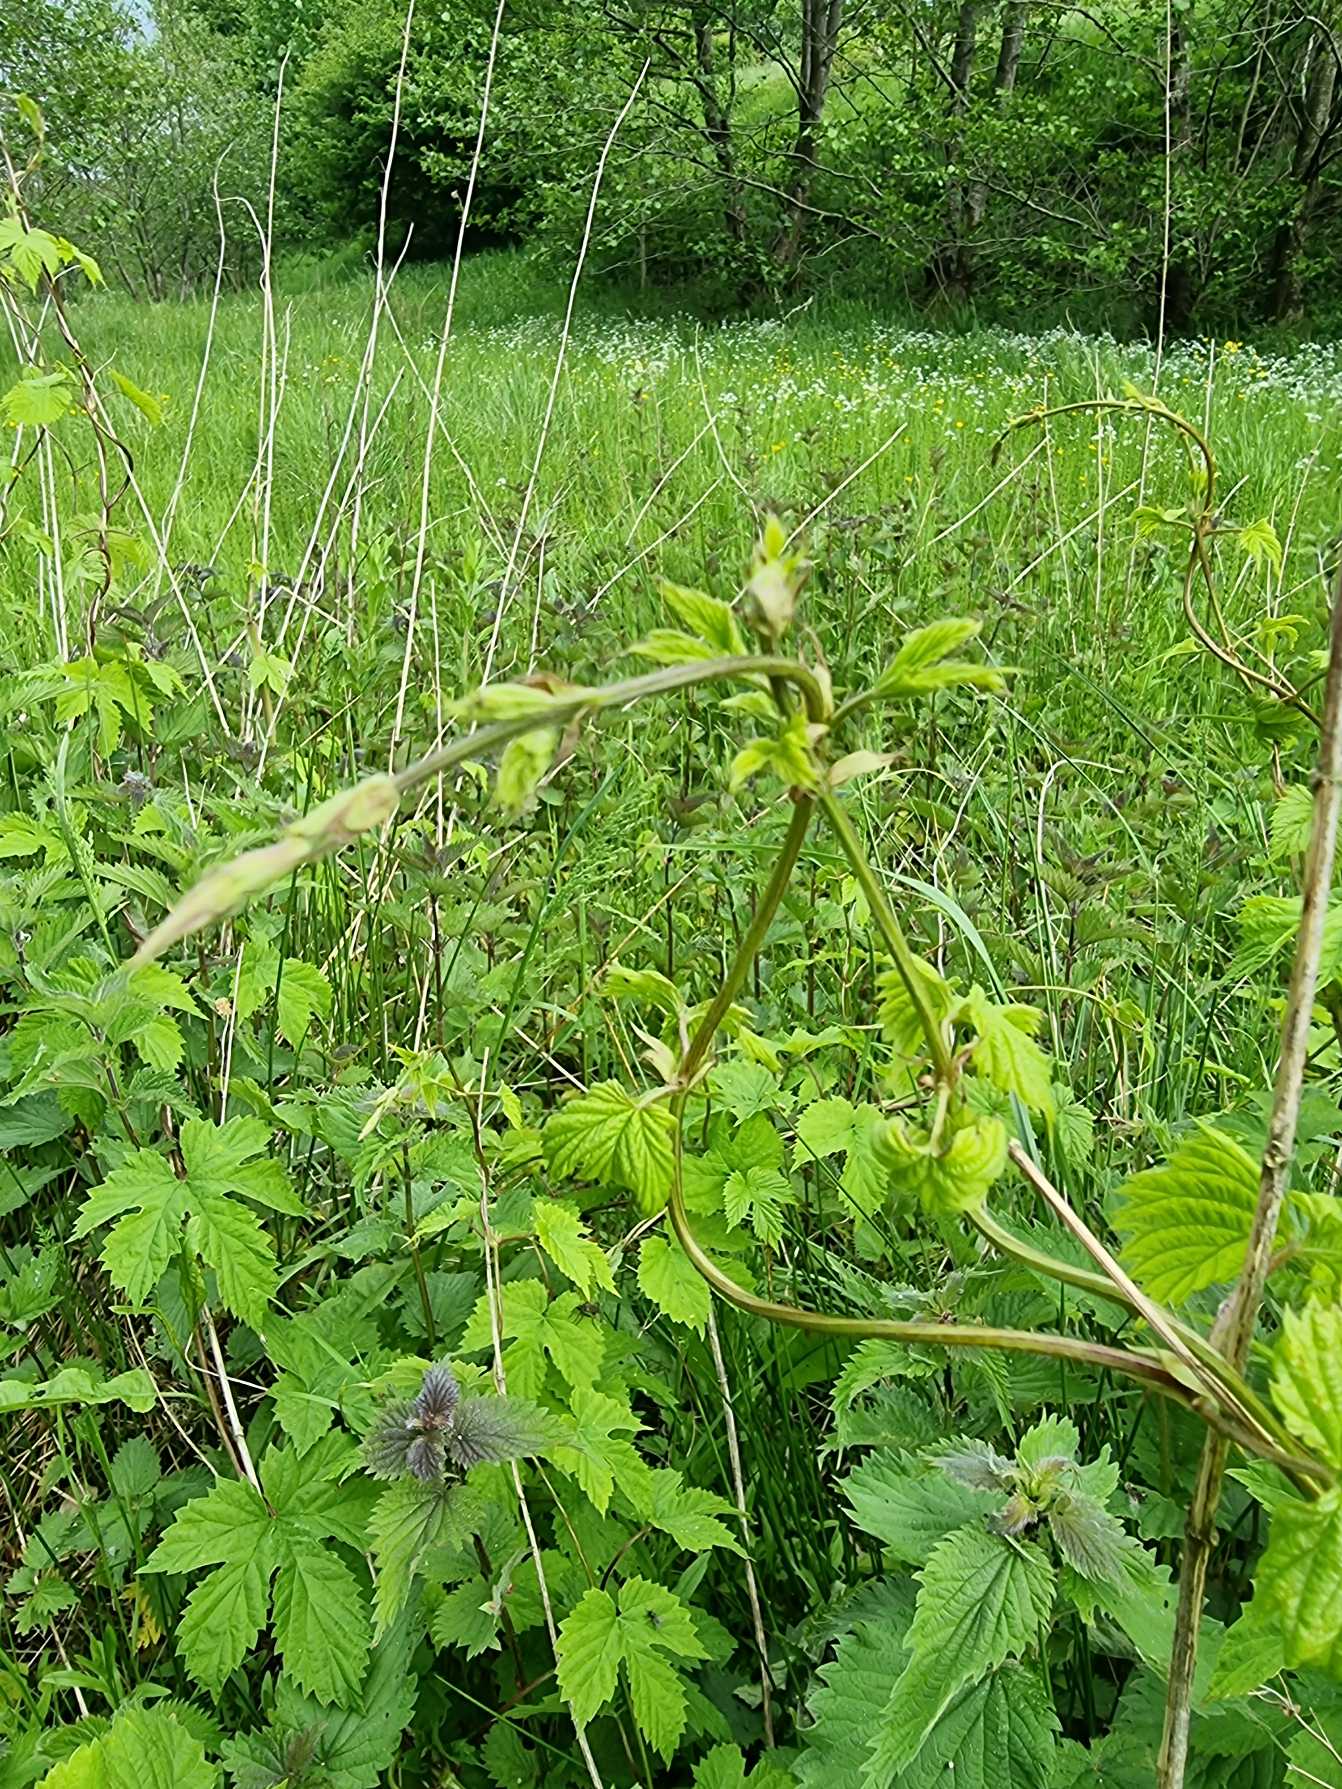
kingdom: Plantae
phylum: Tracheophyta
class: Magnoliopsida
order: Rosales
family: Cannabaceae
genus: Humulus
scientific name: Humulus lupulus
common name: Humle
